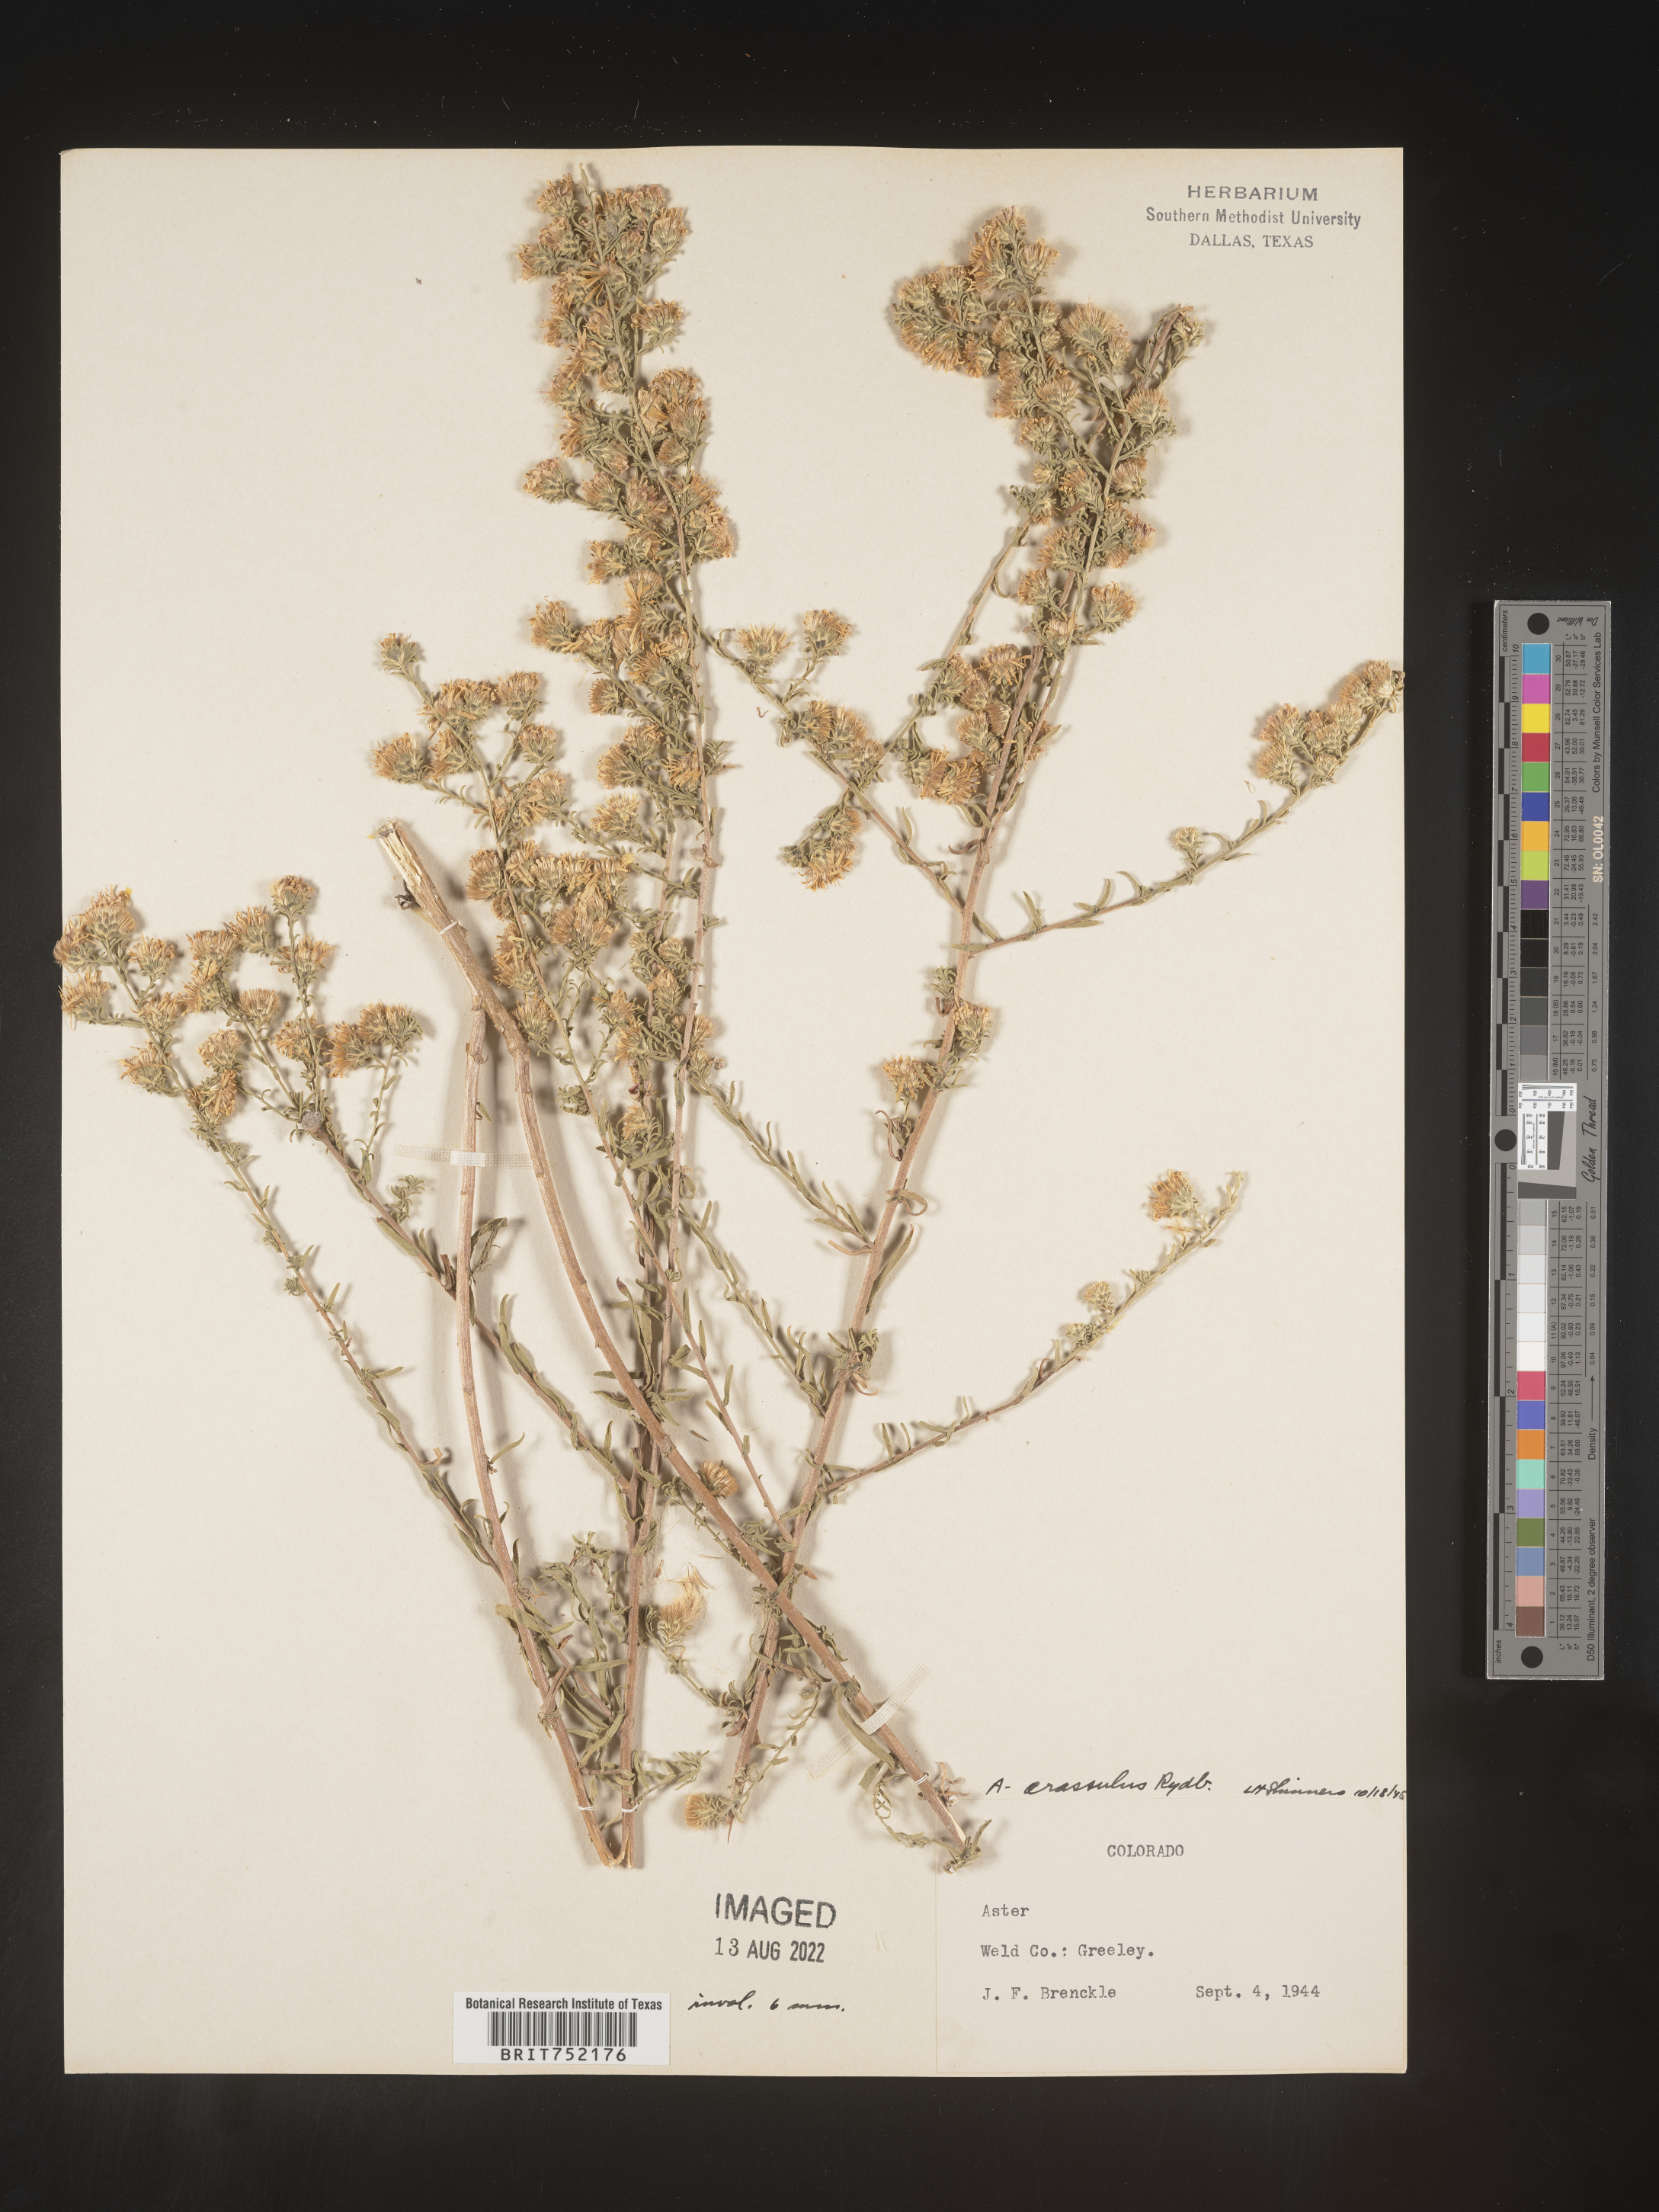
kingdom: Plantae
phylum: Tracheophyta
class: Magnoliopsida
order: Asterales
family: Asteraceae
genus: Symphyotrichum
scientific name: Symphyotrichum ericoides
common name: Heath aster
